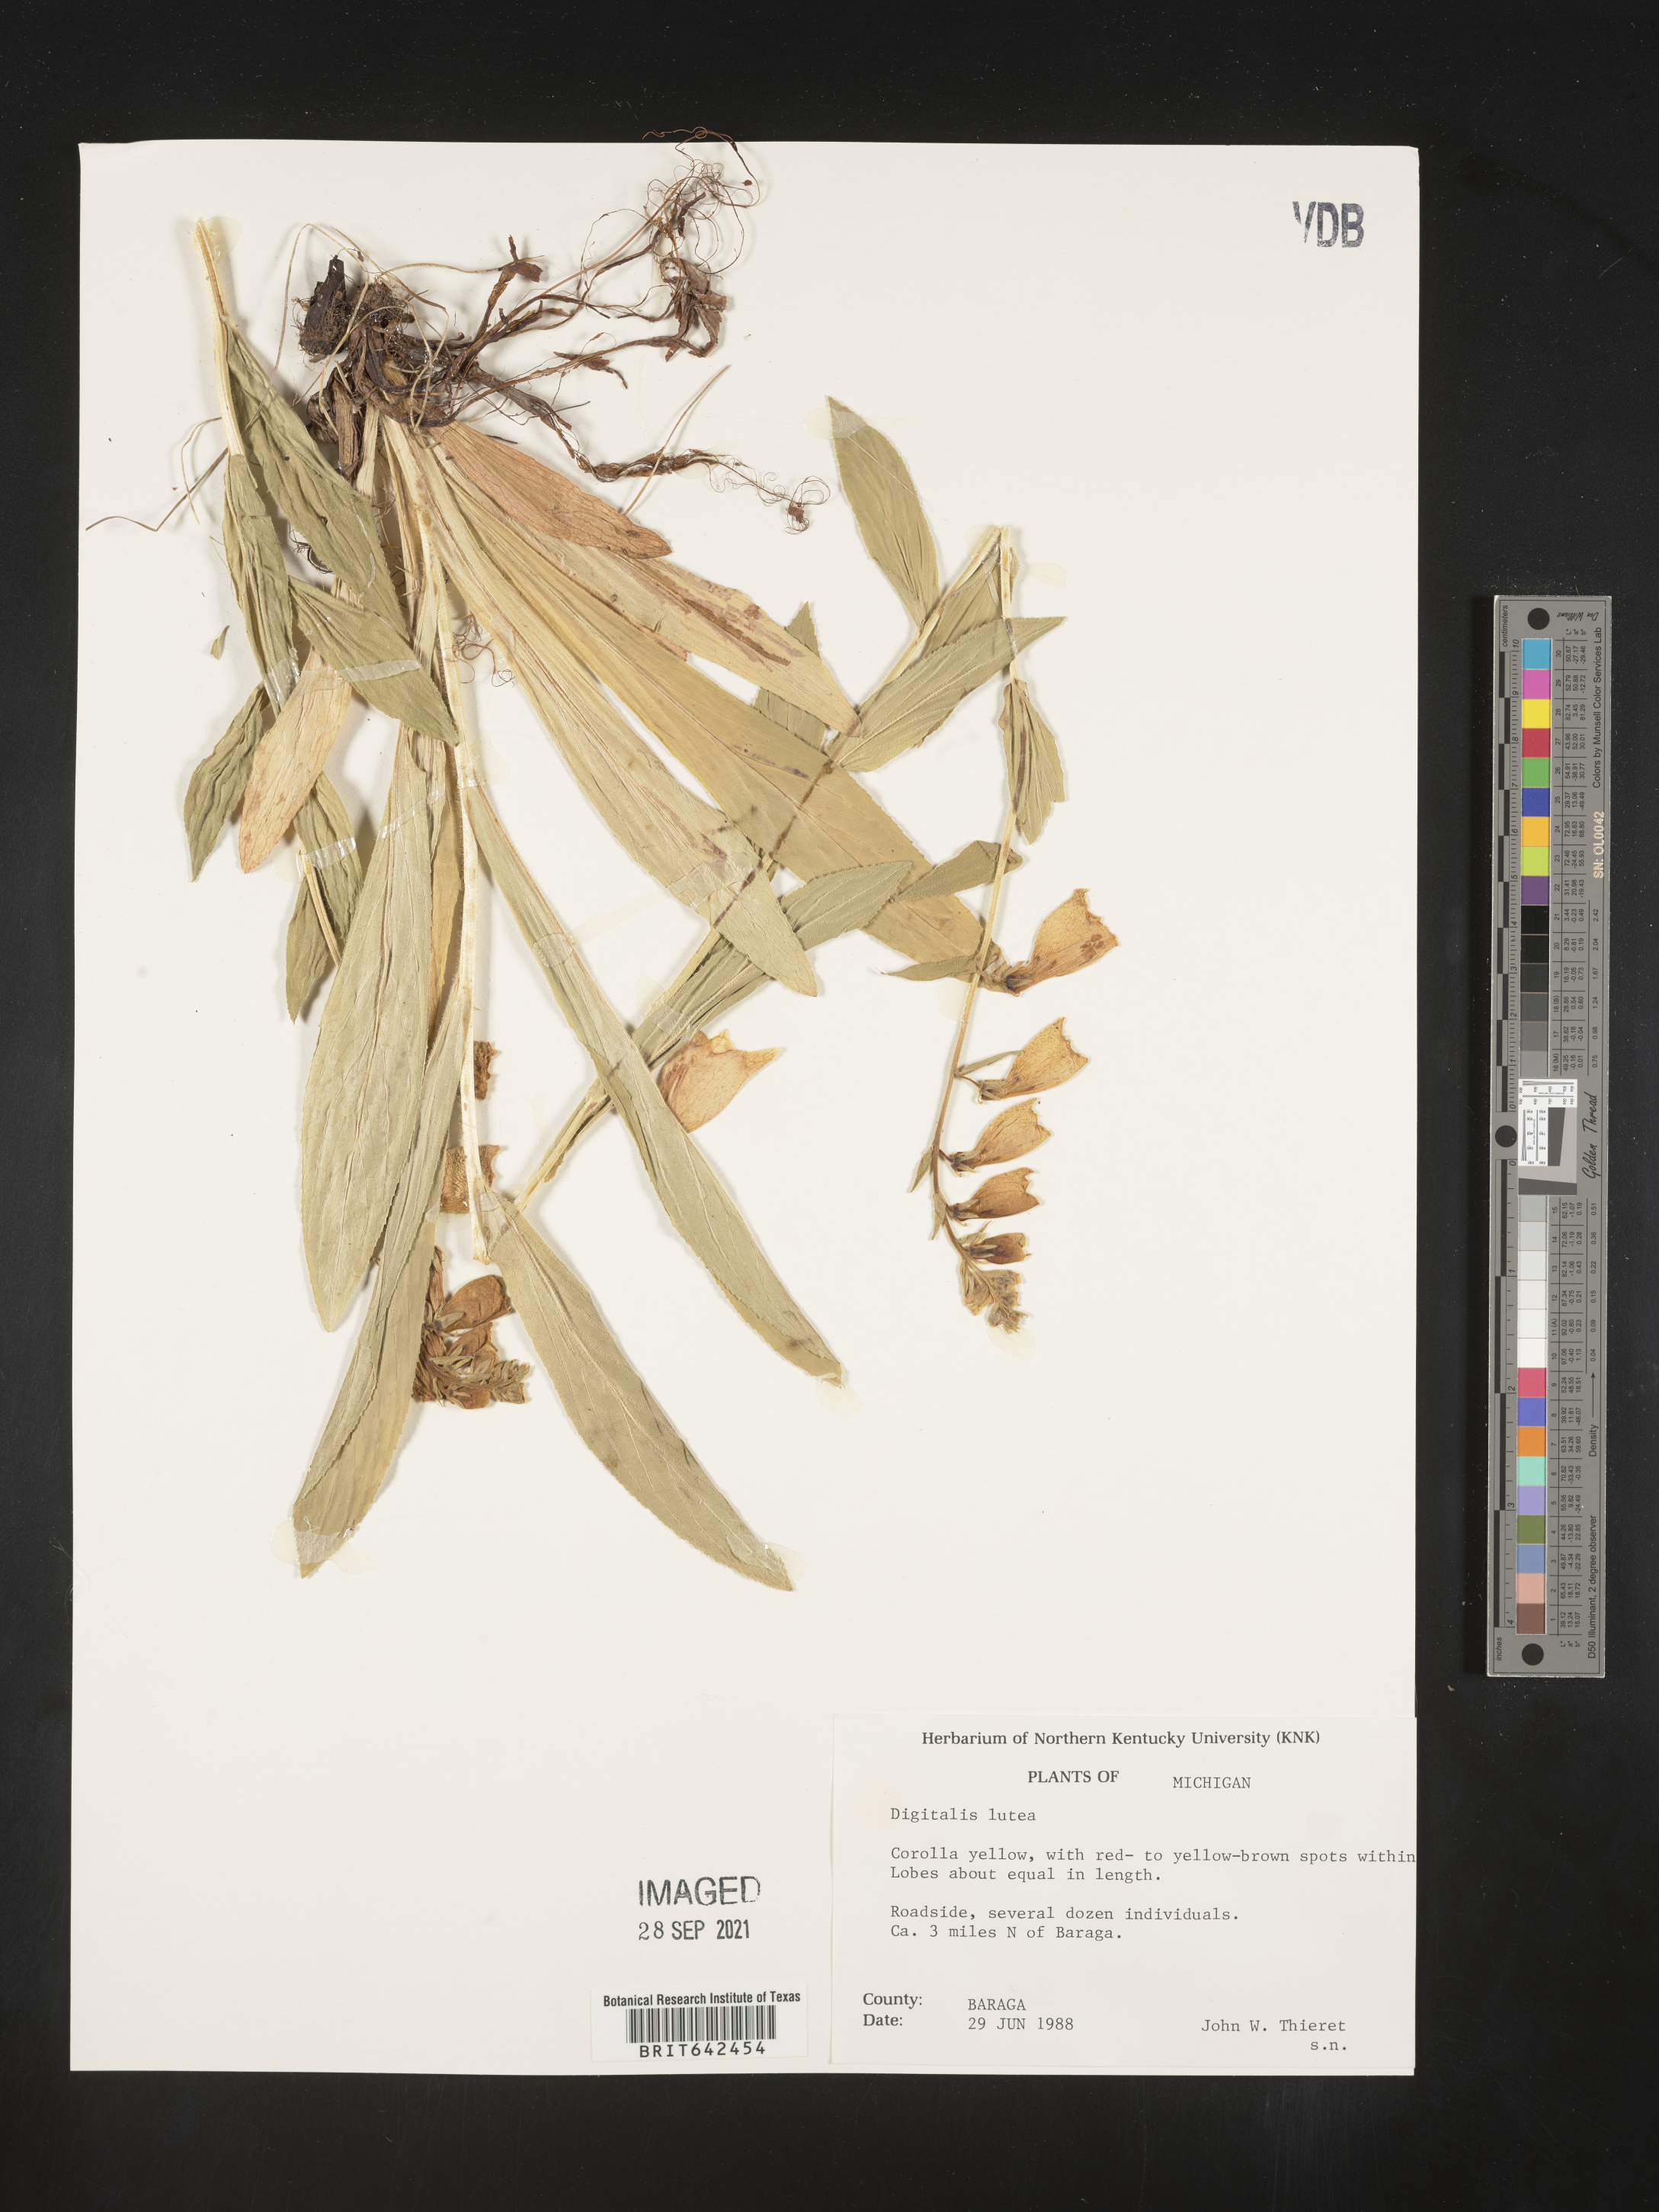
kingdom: Plantae
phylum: Tracheophyta
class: Magnoliopsida
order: Lamiales
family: Plantaginaceae
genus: Digitalis
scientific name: Digitalis
